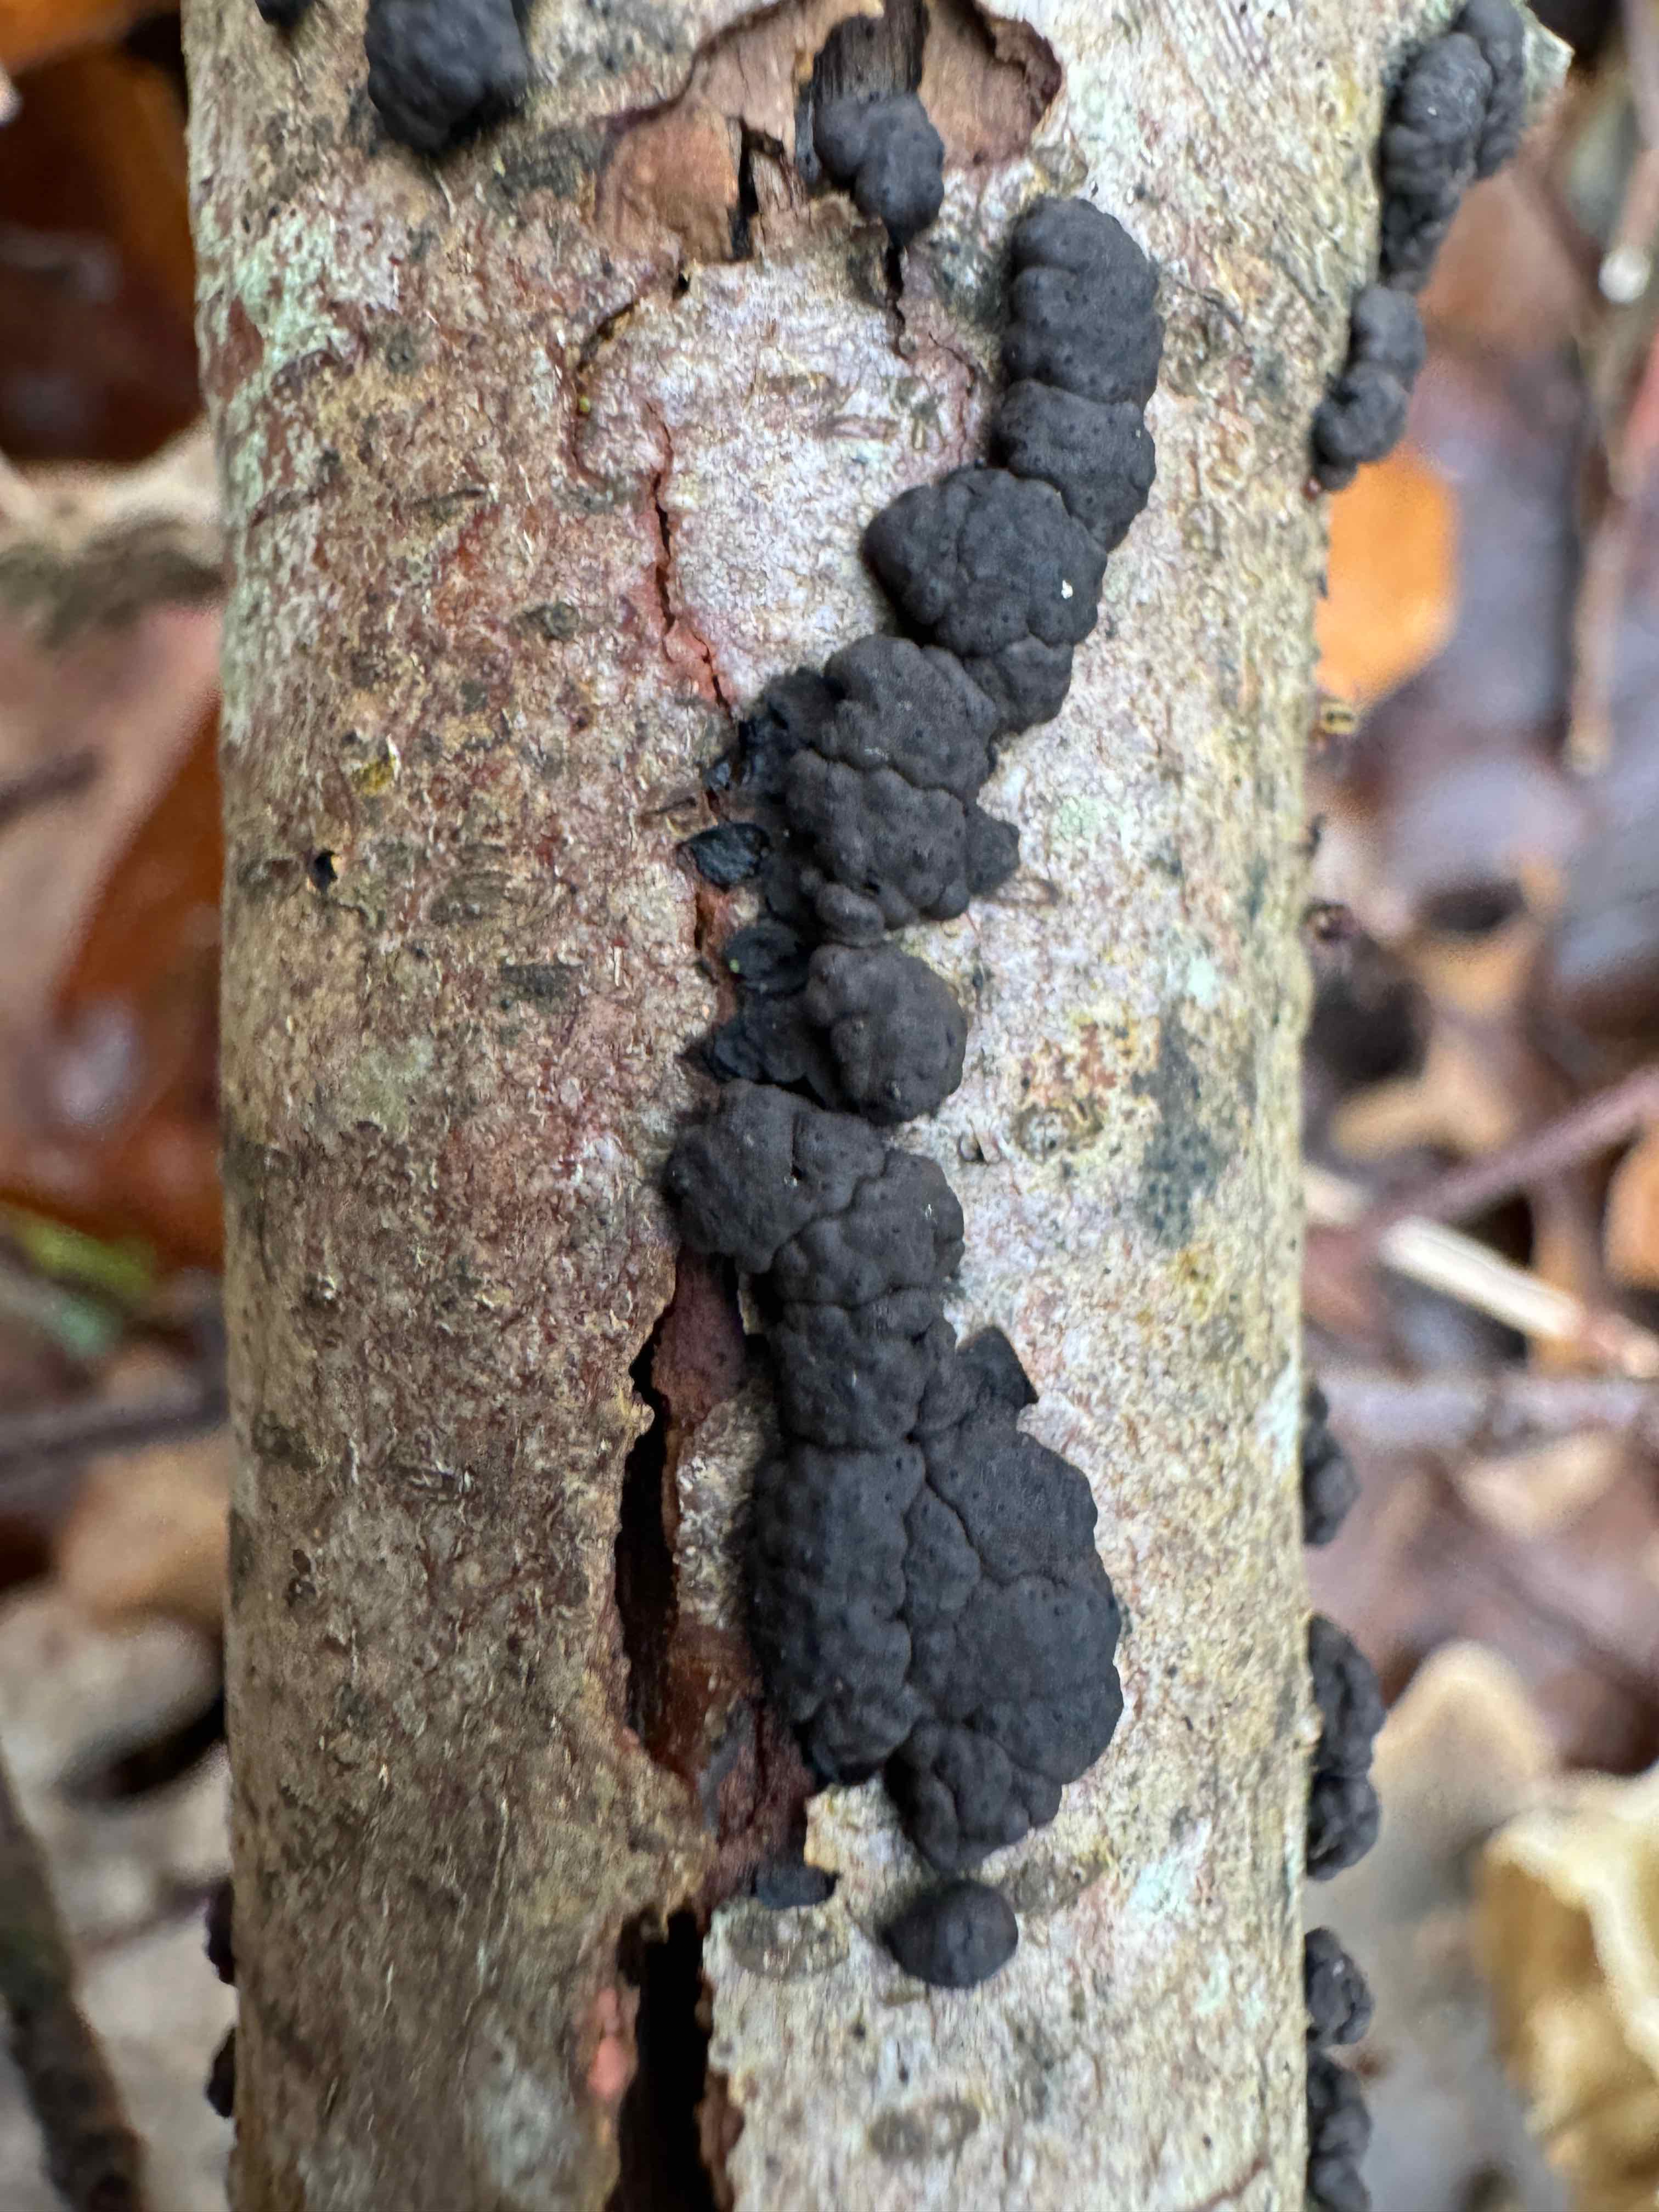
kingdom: Fungi
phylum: Ascomycota
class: Sordariomycetes
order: Xylariales
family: Hypoxylaceae
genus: Jackrogersella
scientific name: Jackrogersella cohaerens
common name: sammenflydende kulbær
